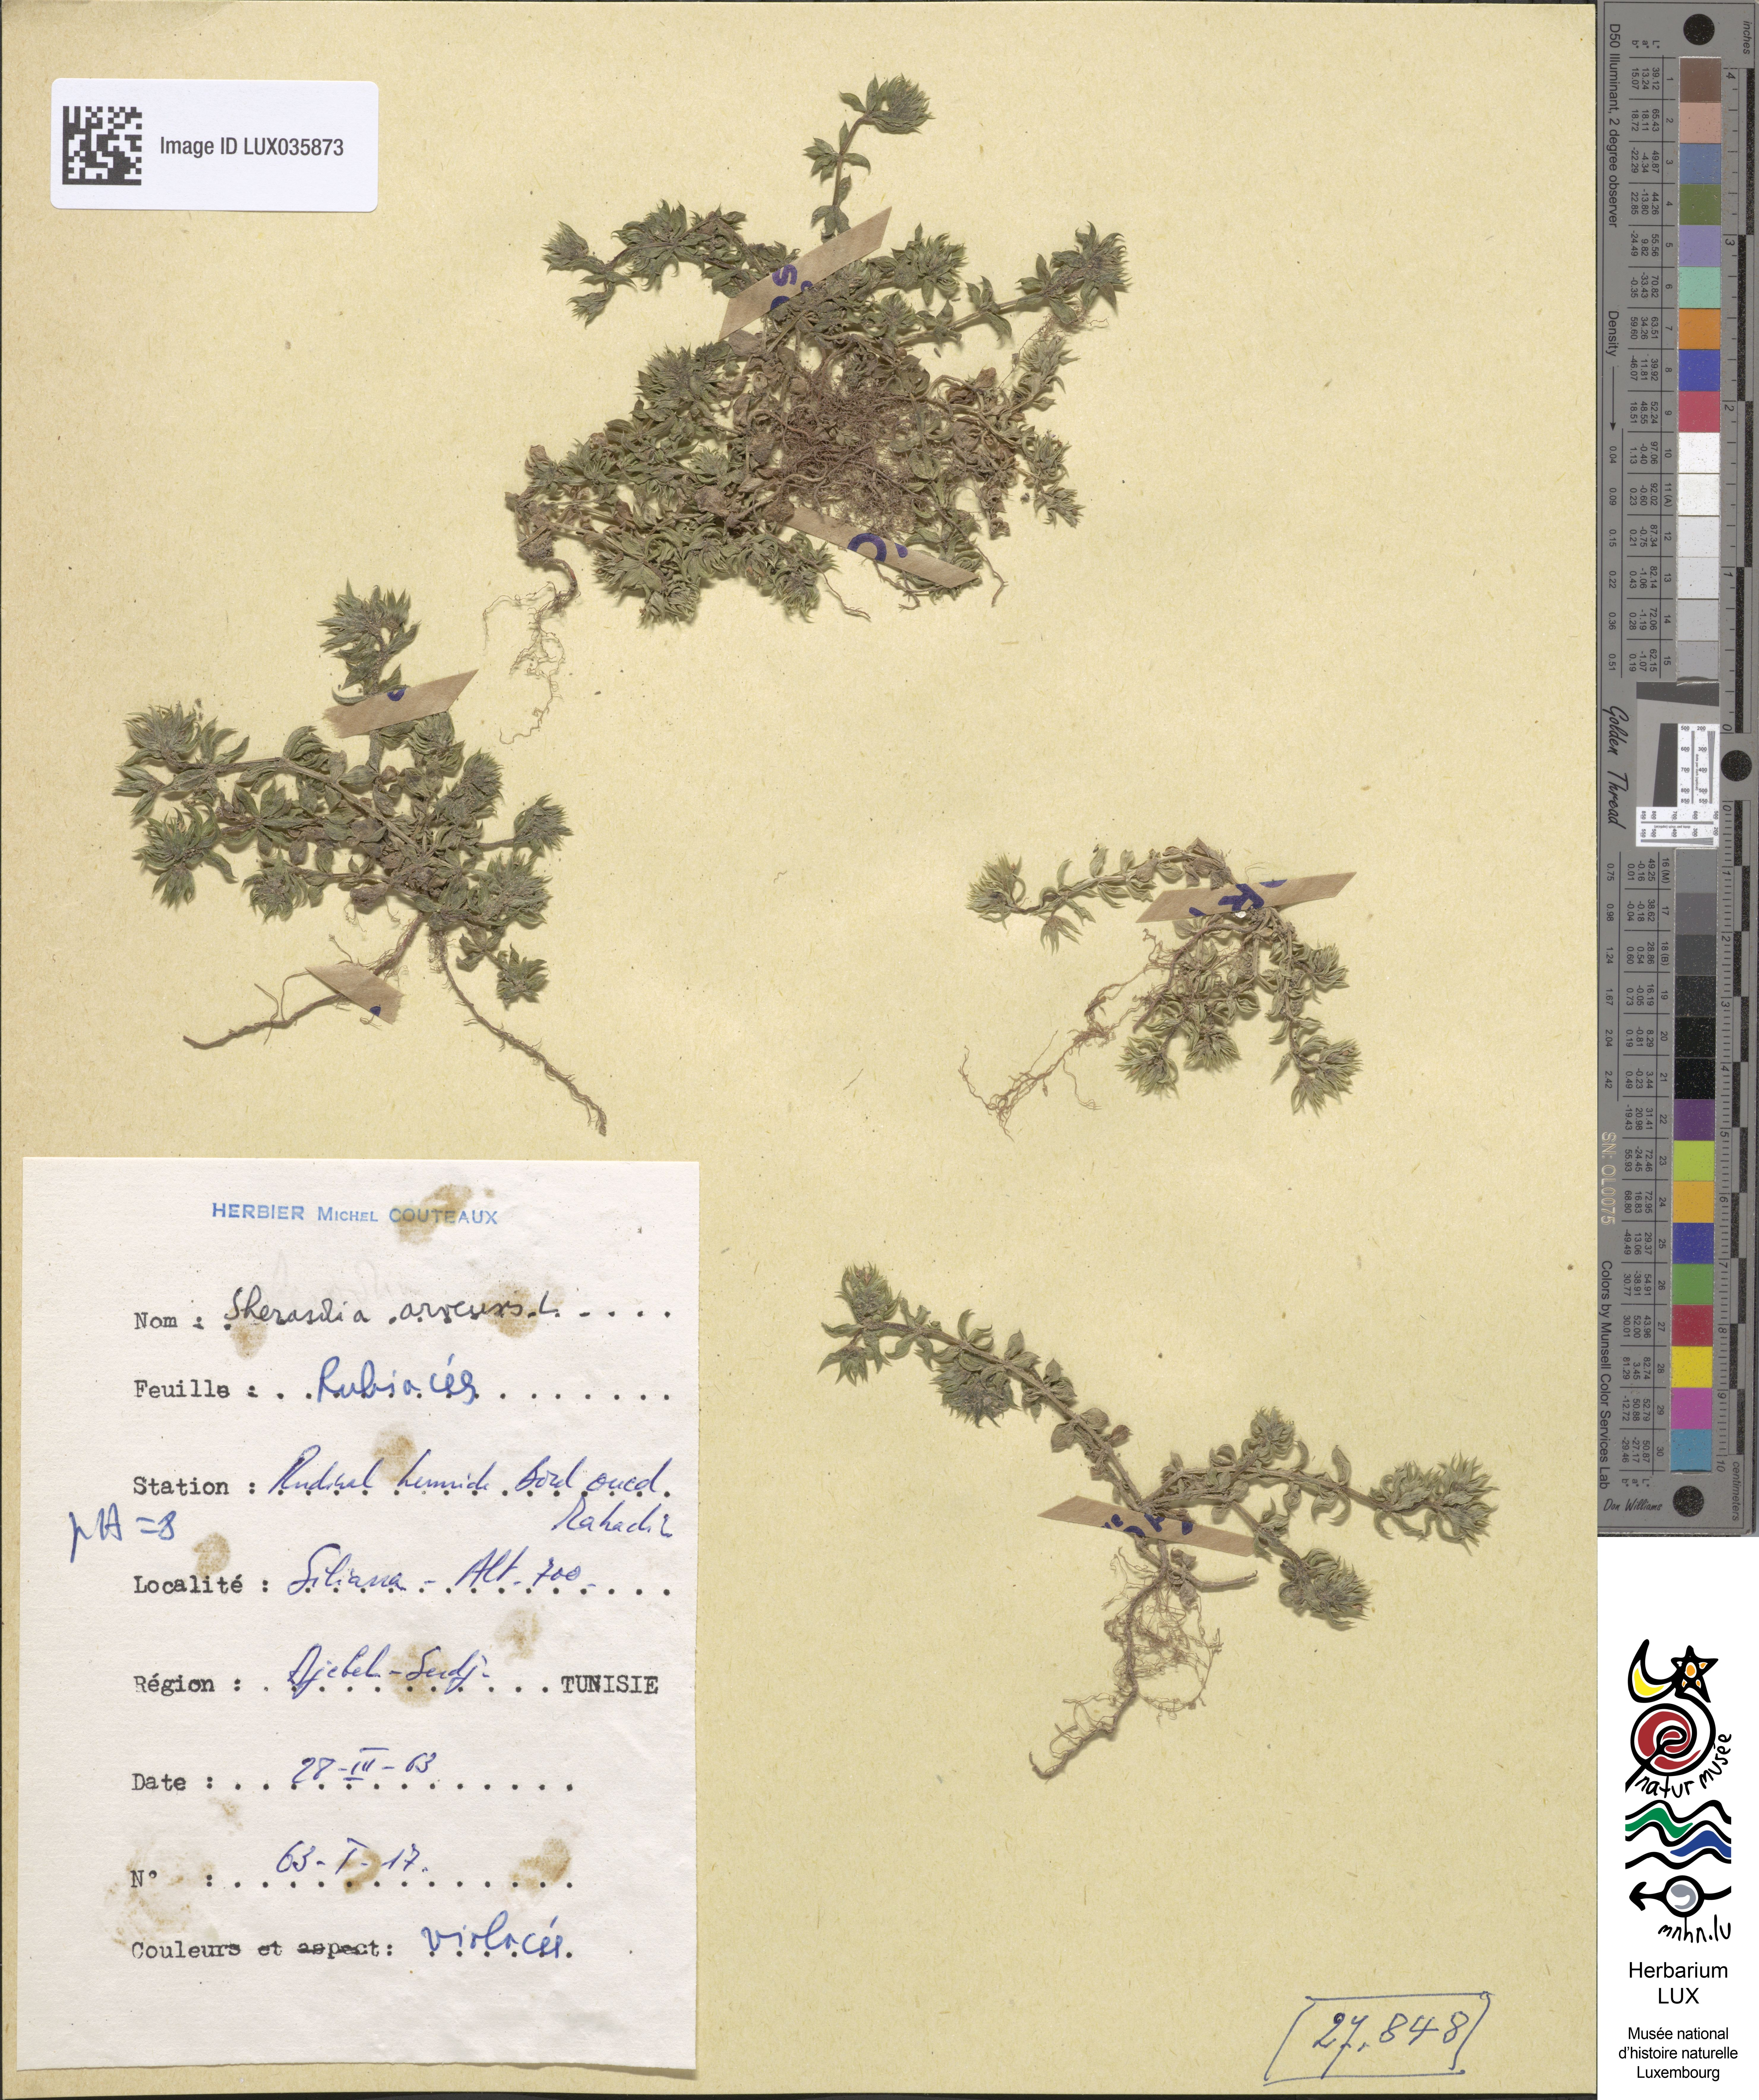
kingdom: Plantae
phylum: Tracheophyta
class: Magnoliopsida
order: Gentianales
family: Rubiaceae
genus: Sherardia
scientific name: Sherardia arvensis
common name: Field madder
